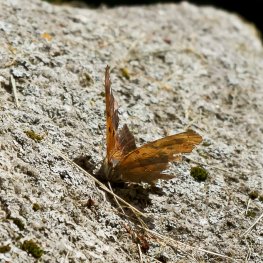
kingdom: Animalia
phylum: Arthropoda
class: Insecta
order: Lepidoptera
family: Nymphalidae
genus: Polygonia
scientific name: Polygonia interrogationis
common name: Question Mark
